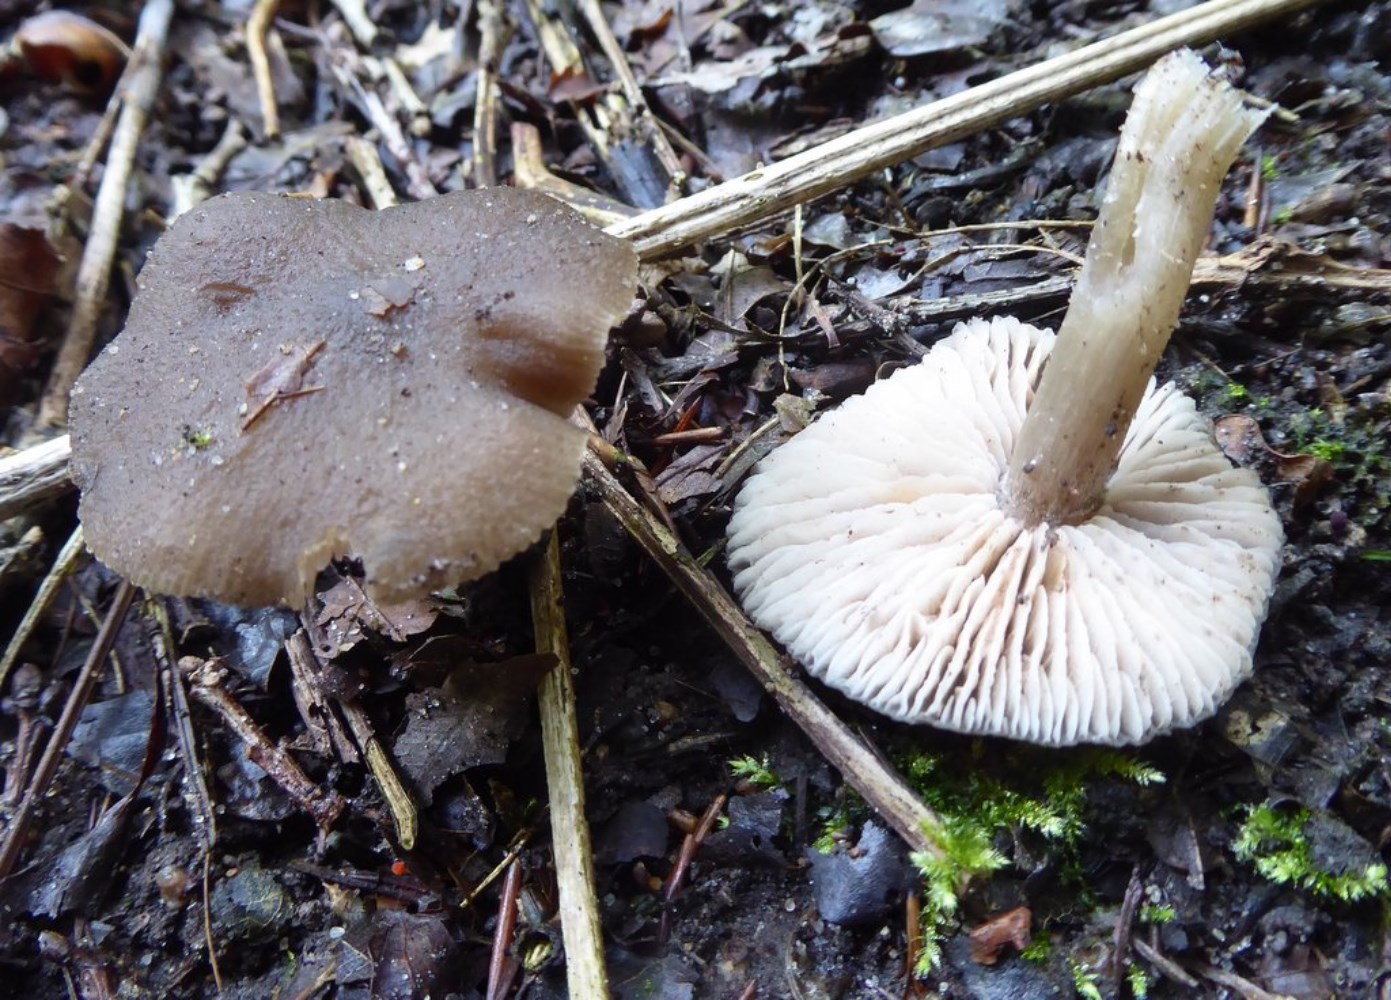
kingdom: Fungi
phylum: Basidiomycota
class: Agaricomycetes
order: Agaricales
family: Entolomataceae
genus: Entoloma
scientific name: Entoloma
